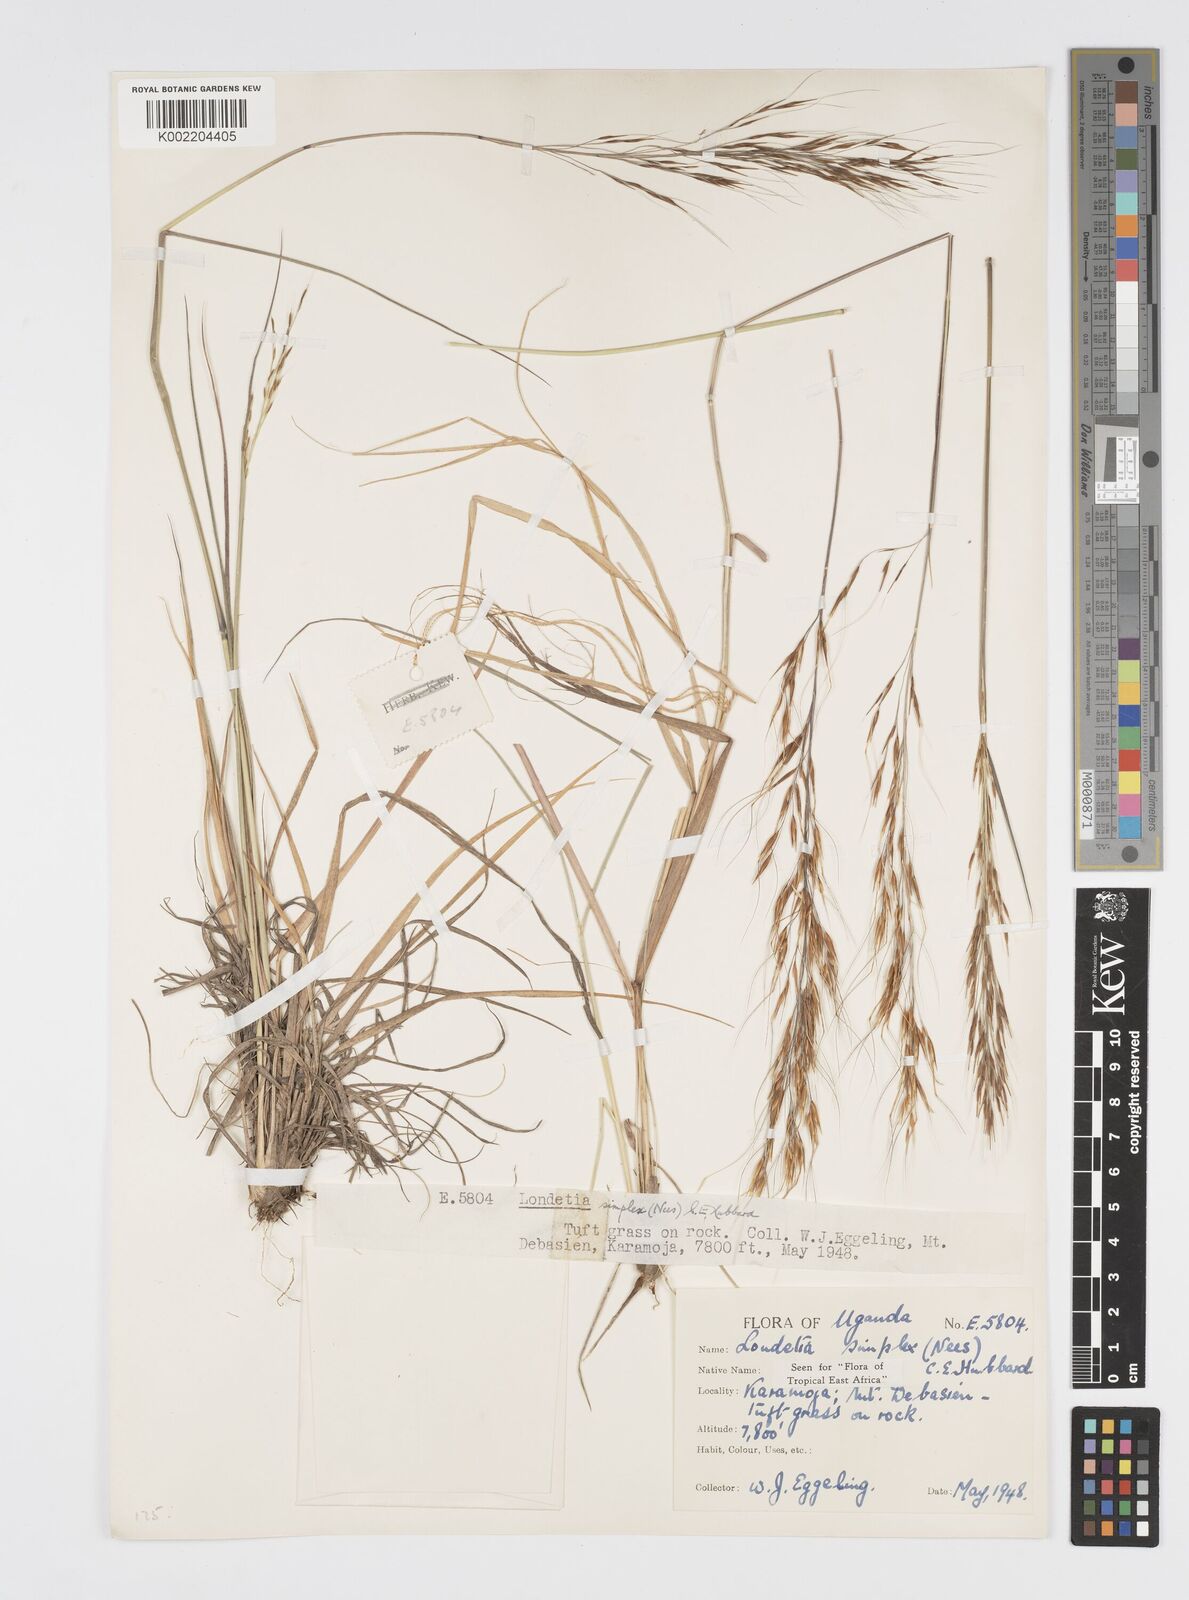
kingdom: Plantae
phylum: Tracheophyta
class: Liliopsida
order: Poales
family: Poaceae
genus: Loudetia
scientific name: Loudetia simplex
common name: Common russet grass
